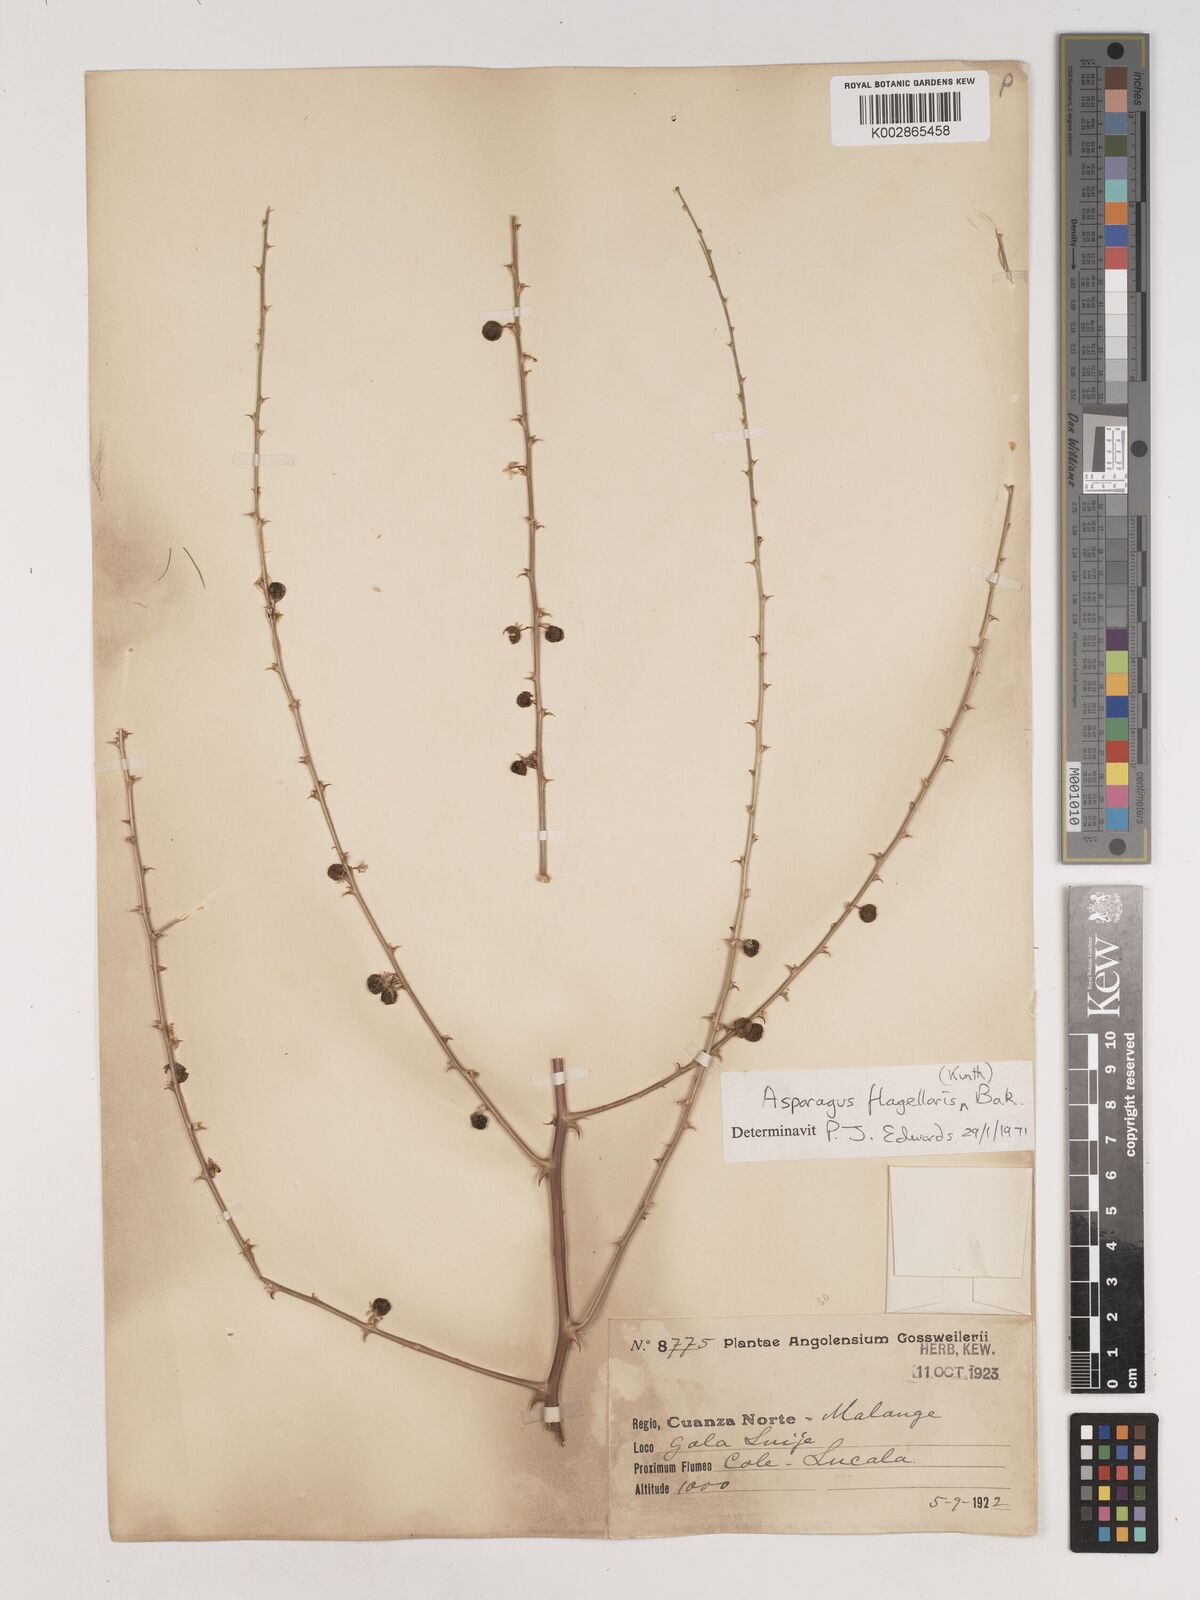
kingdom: Plantae
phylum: Tracheophyta
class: Liliopsida
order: Asparagales
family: Asparagaceae
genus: Asparagus
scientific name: Asparagus flagellaris
